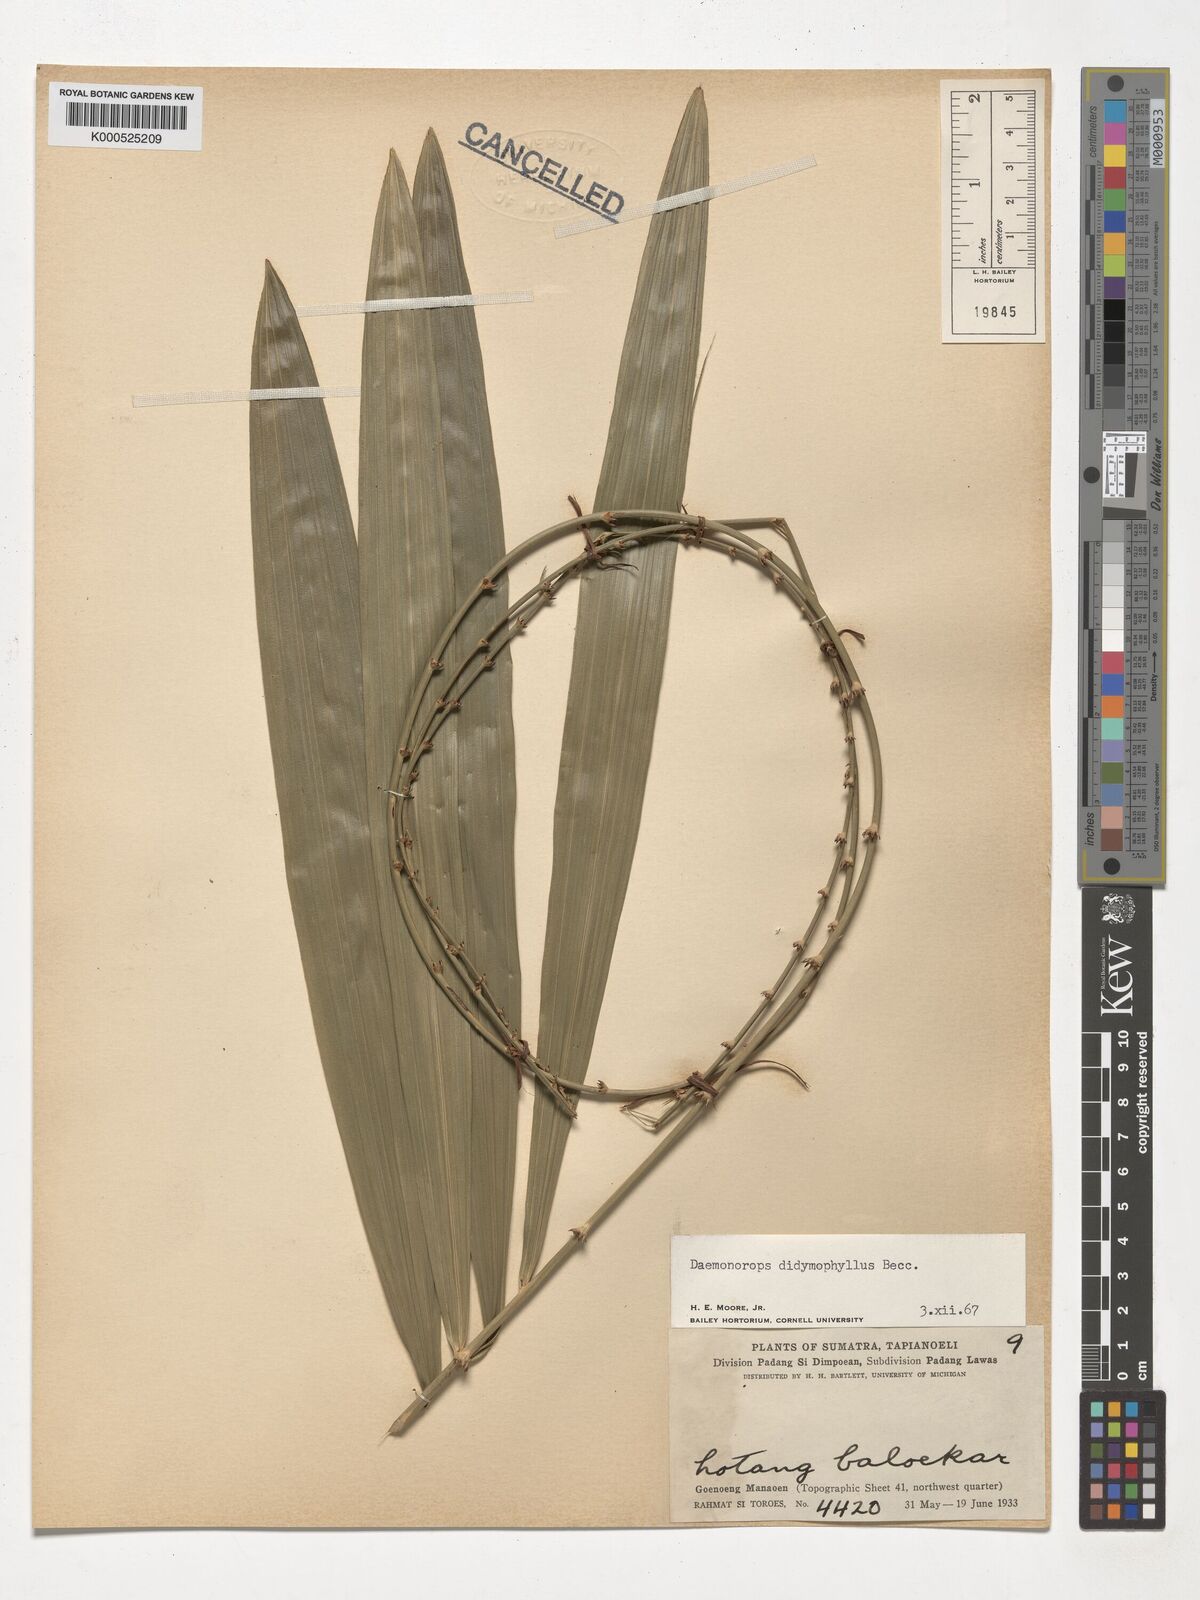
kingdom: Plantae
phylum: Tracheophyta
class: Liliopsida
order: Arecales
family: Arecaceae
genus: Calamus
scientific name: Calamus gracilipes
